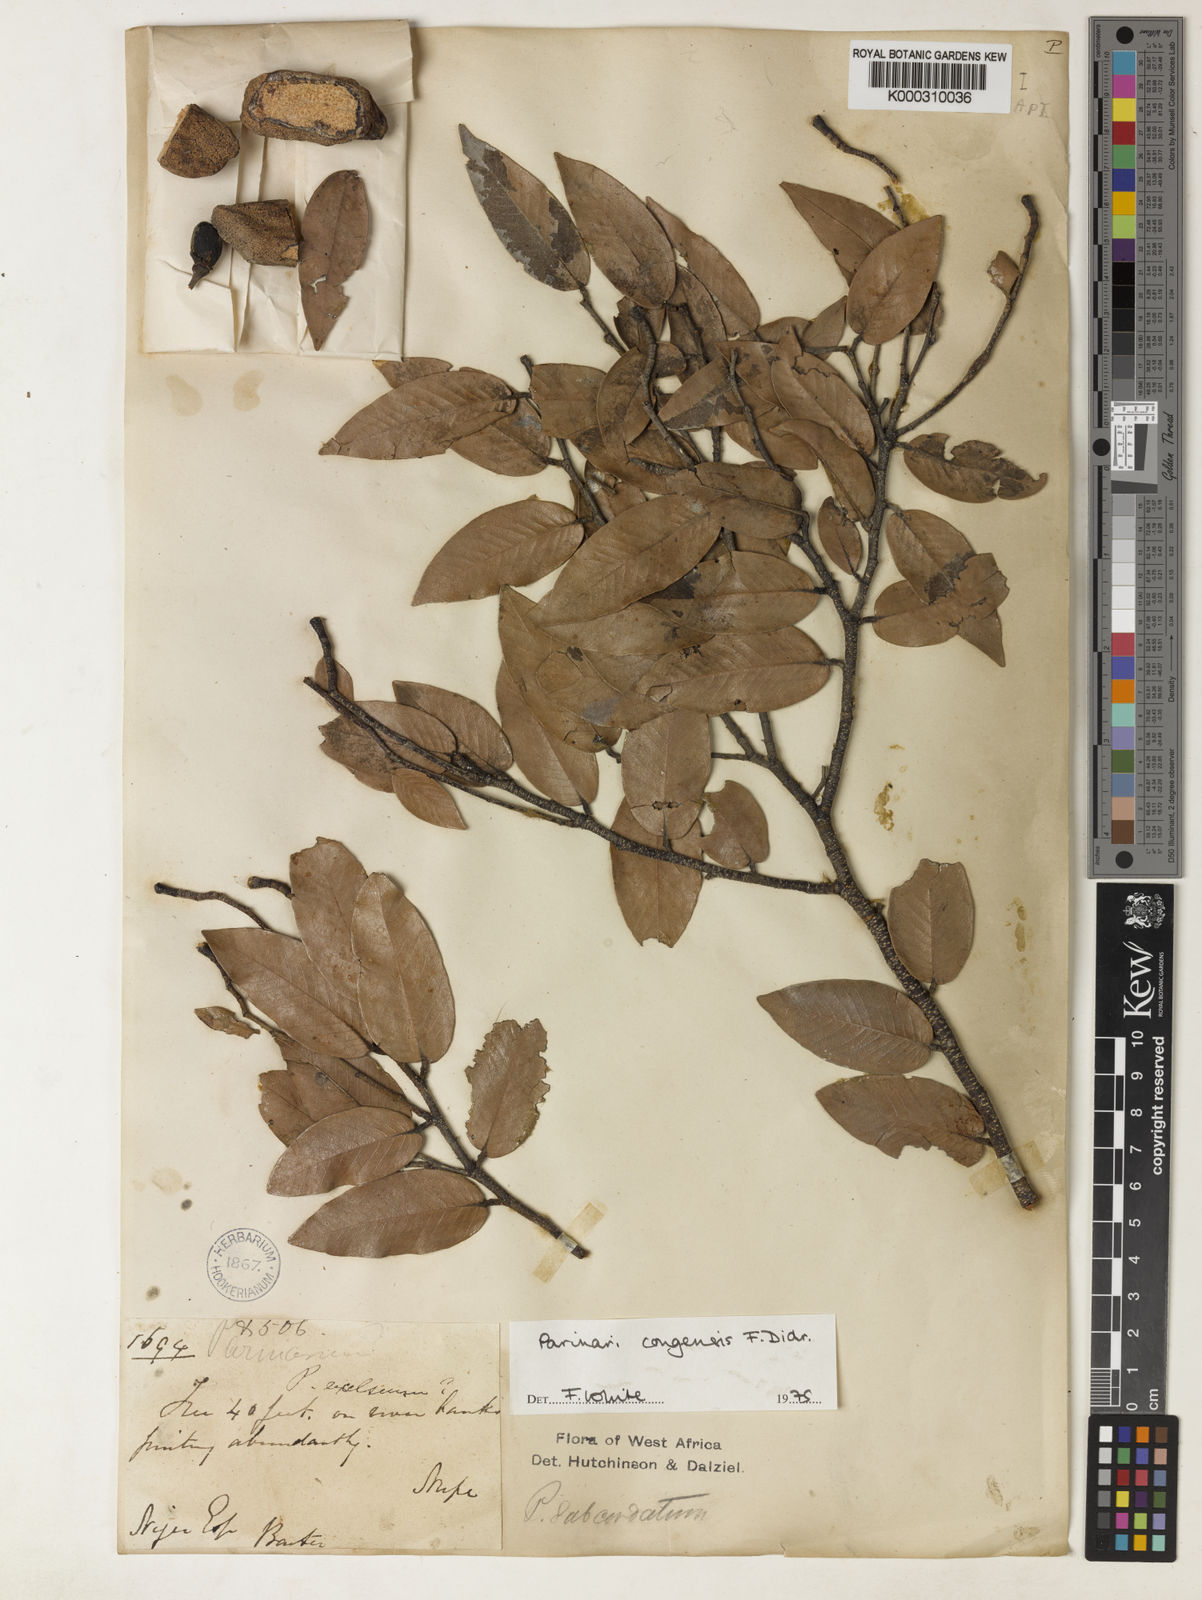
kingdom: Plantae
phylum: Tracheophyta
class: Magnoliopsida
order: Malpighiales
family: Chrysobalanaceae
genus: Parinari
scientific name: Parinari congensis
